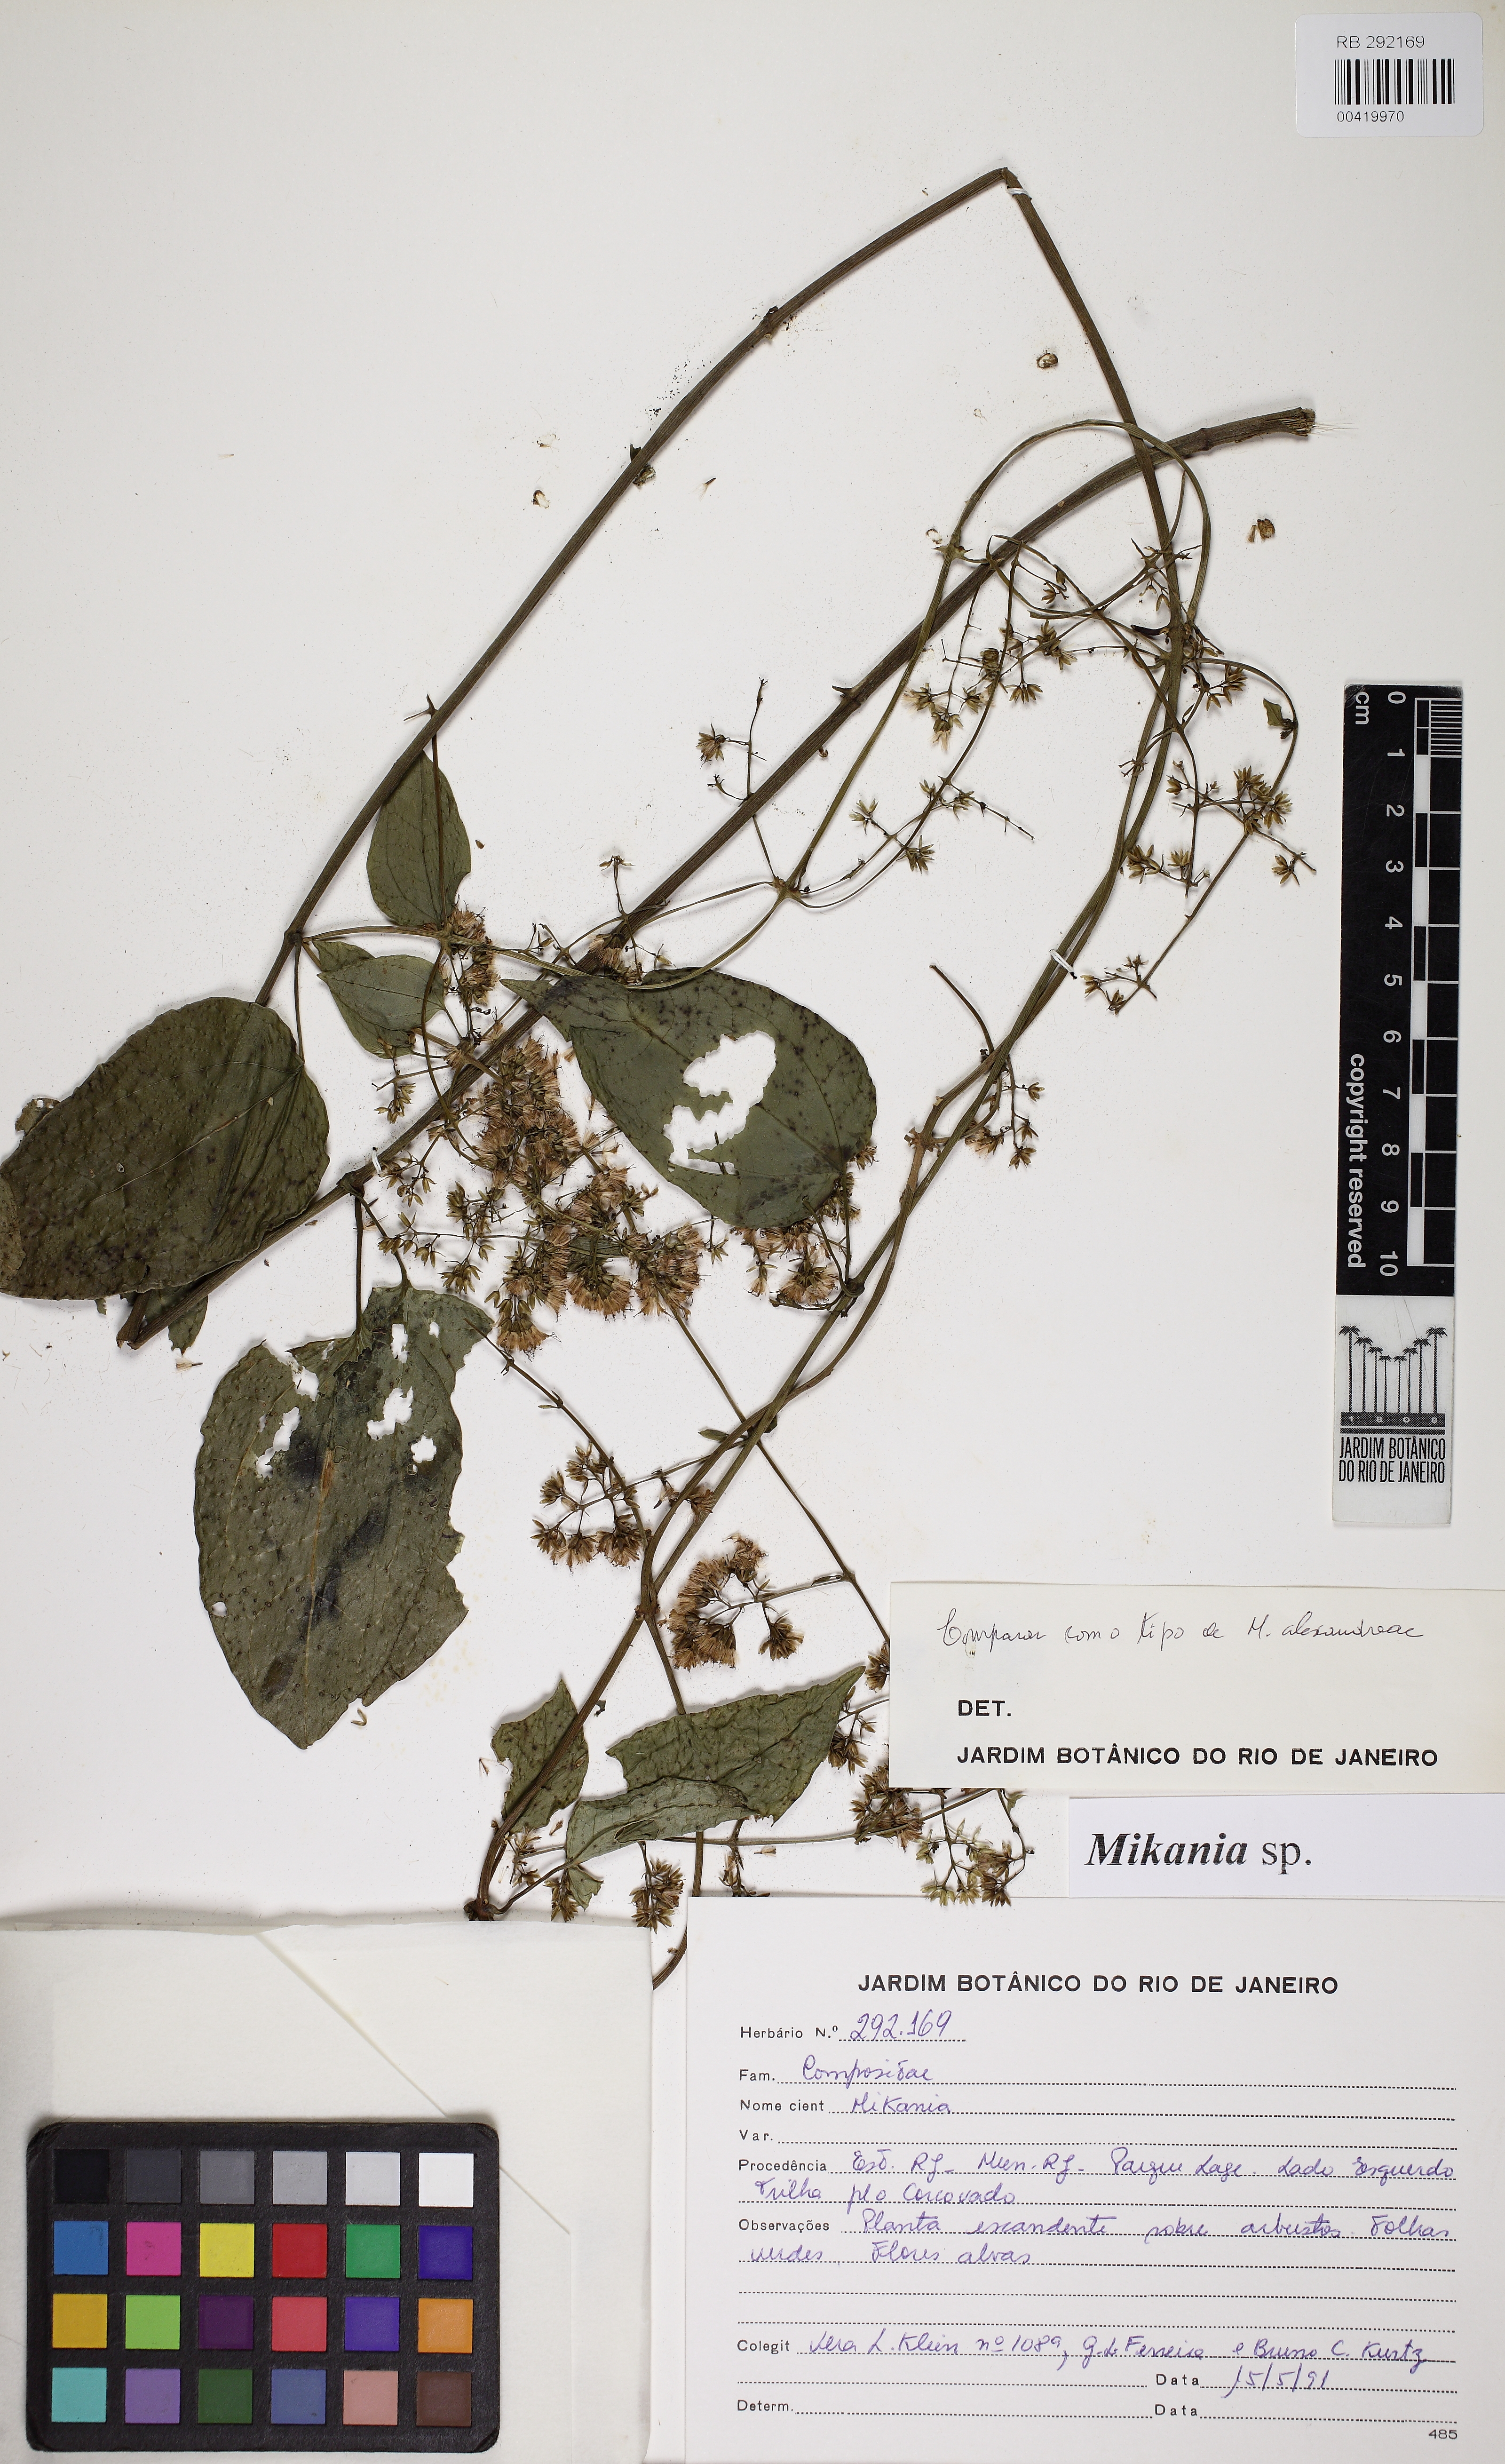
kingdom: Plantae
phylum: Tracheophyta
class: Magnoliopsida
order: Asterales
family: Asteraceae
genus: Mikania
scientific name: Mikania
